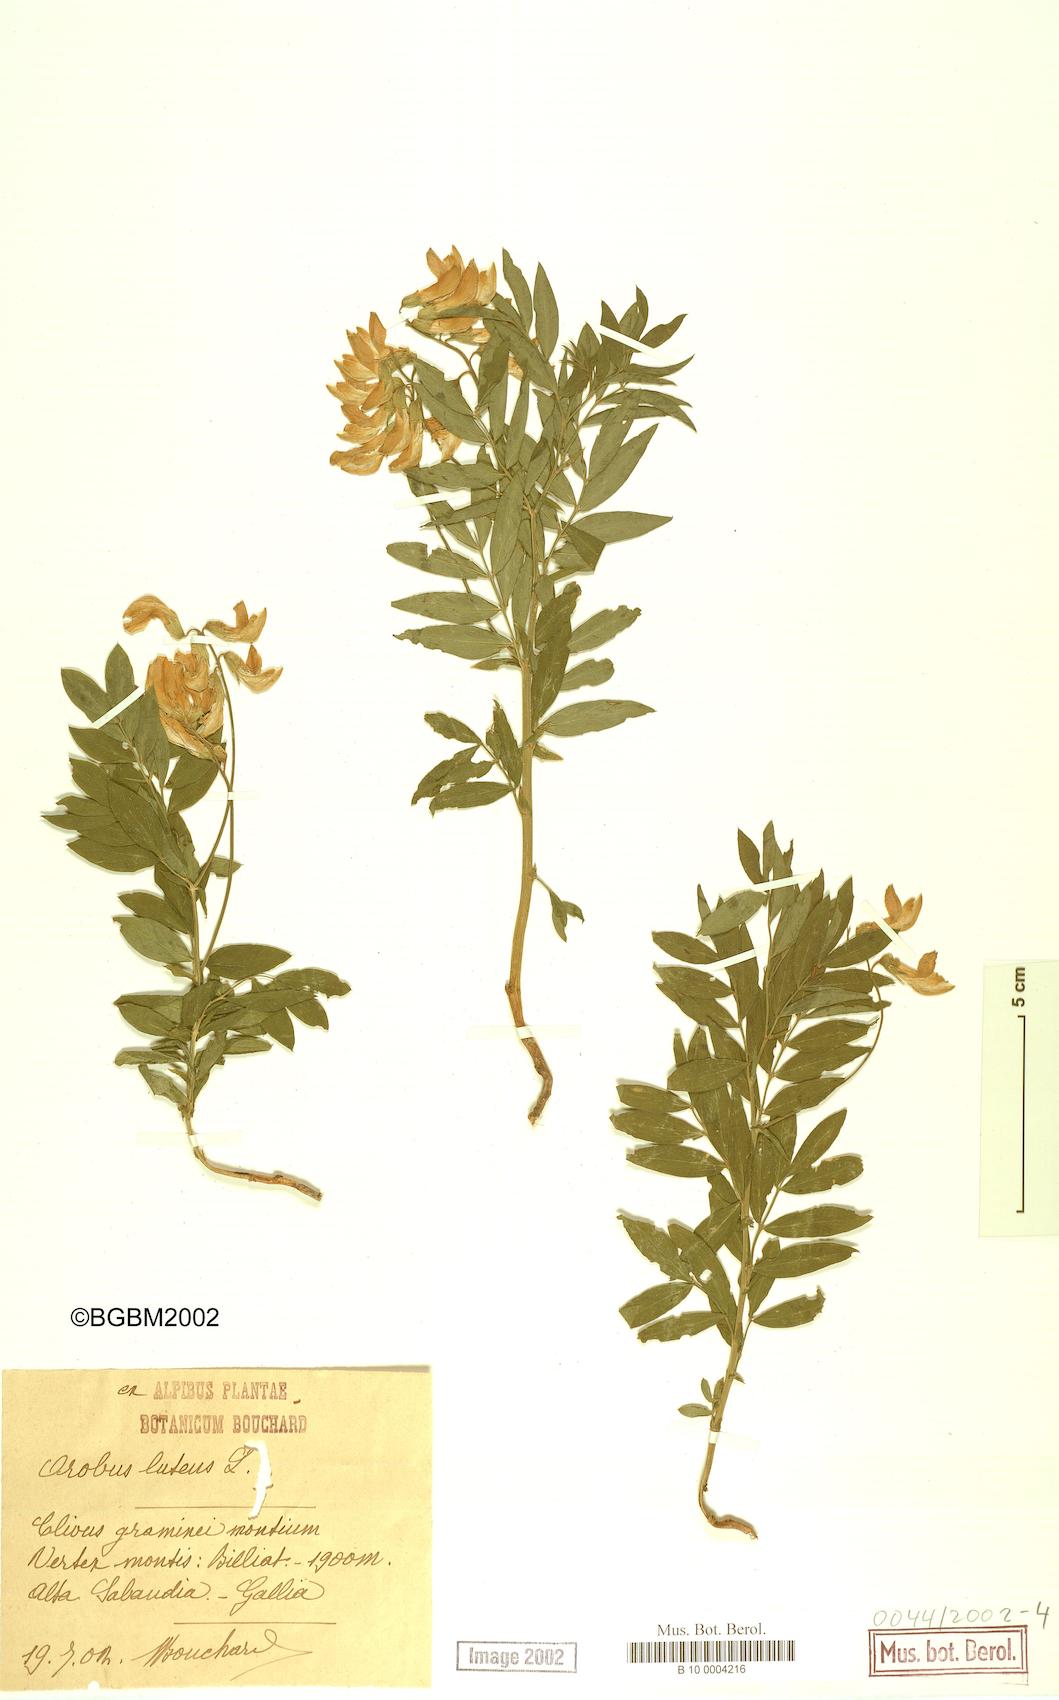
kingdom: Plantae
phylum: Tracheophyta
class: Magnoliopsida
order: Fabales
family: Fabaceae
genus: Lathyrus
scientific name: Lathyrus gmelinii
